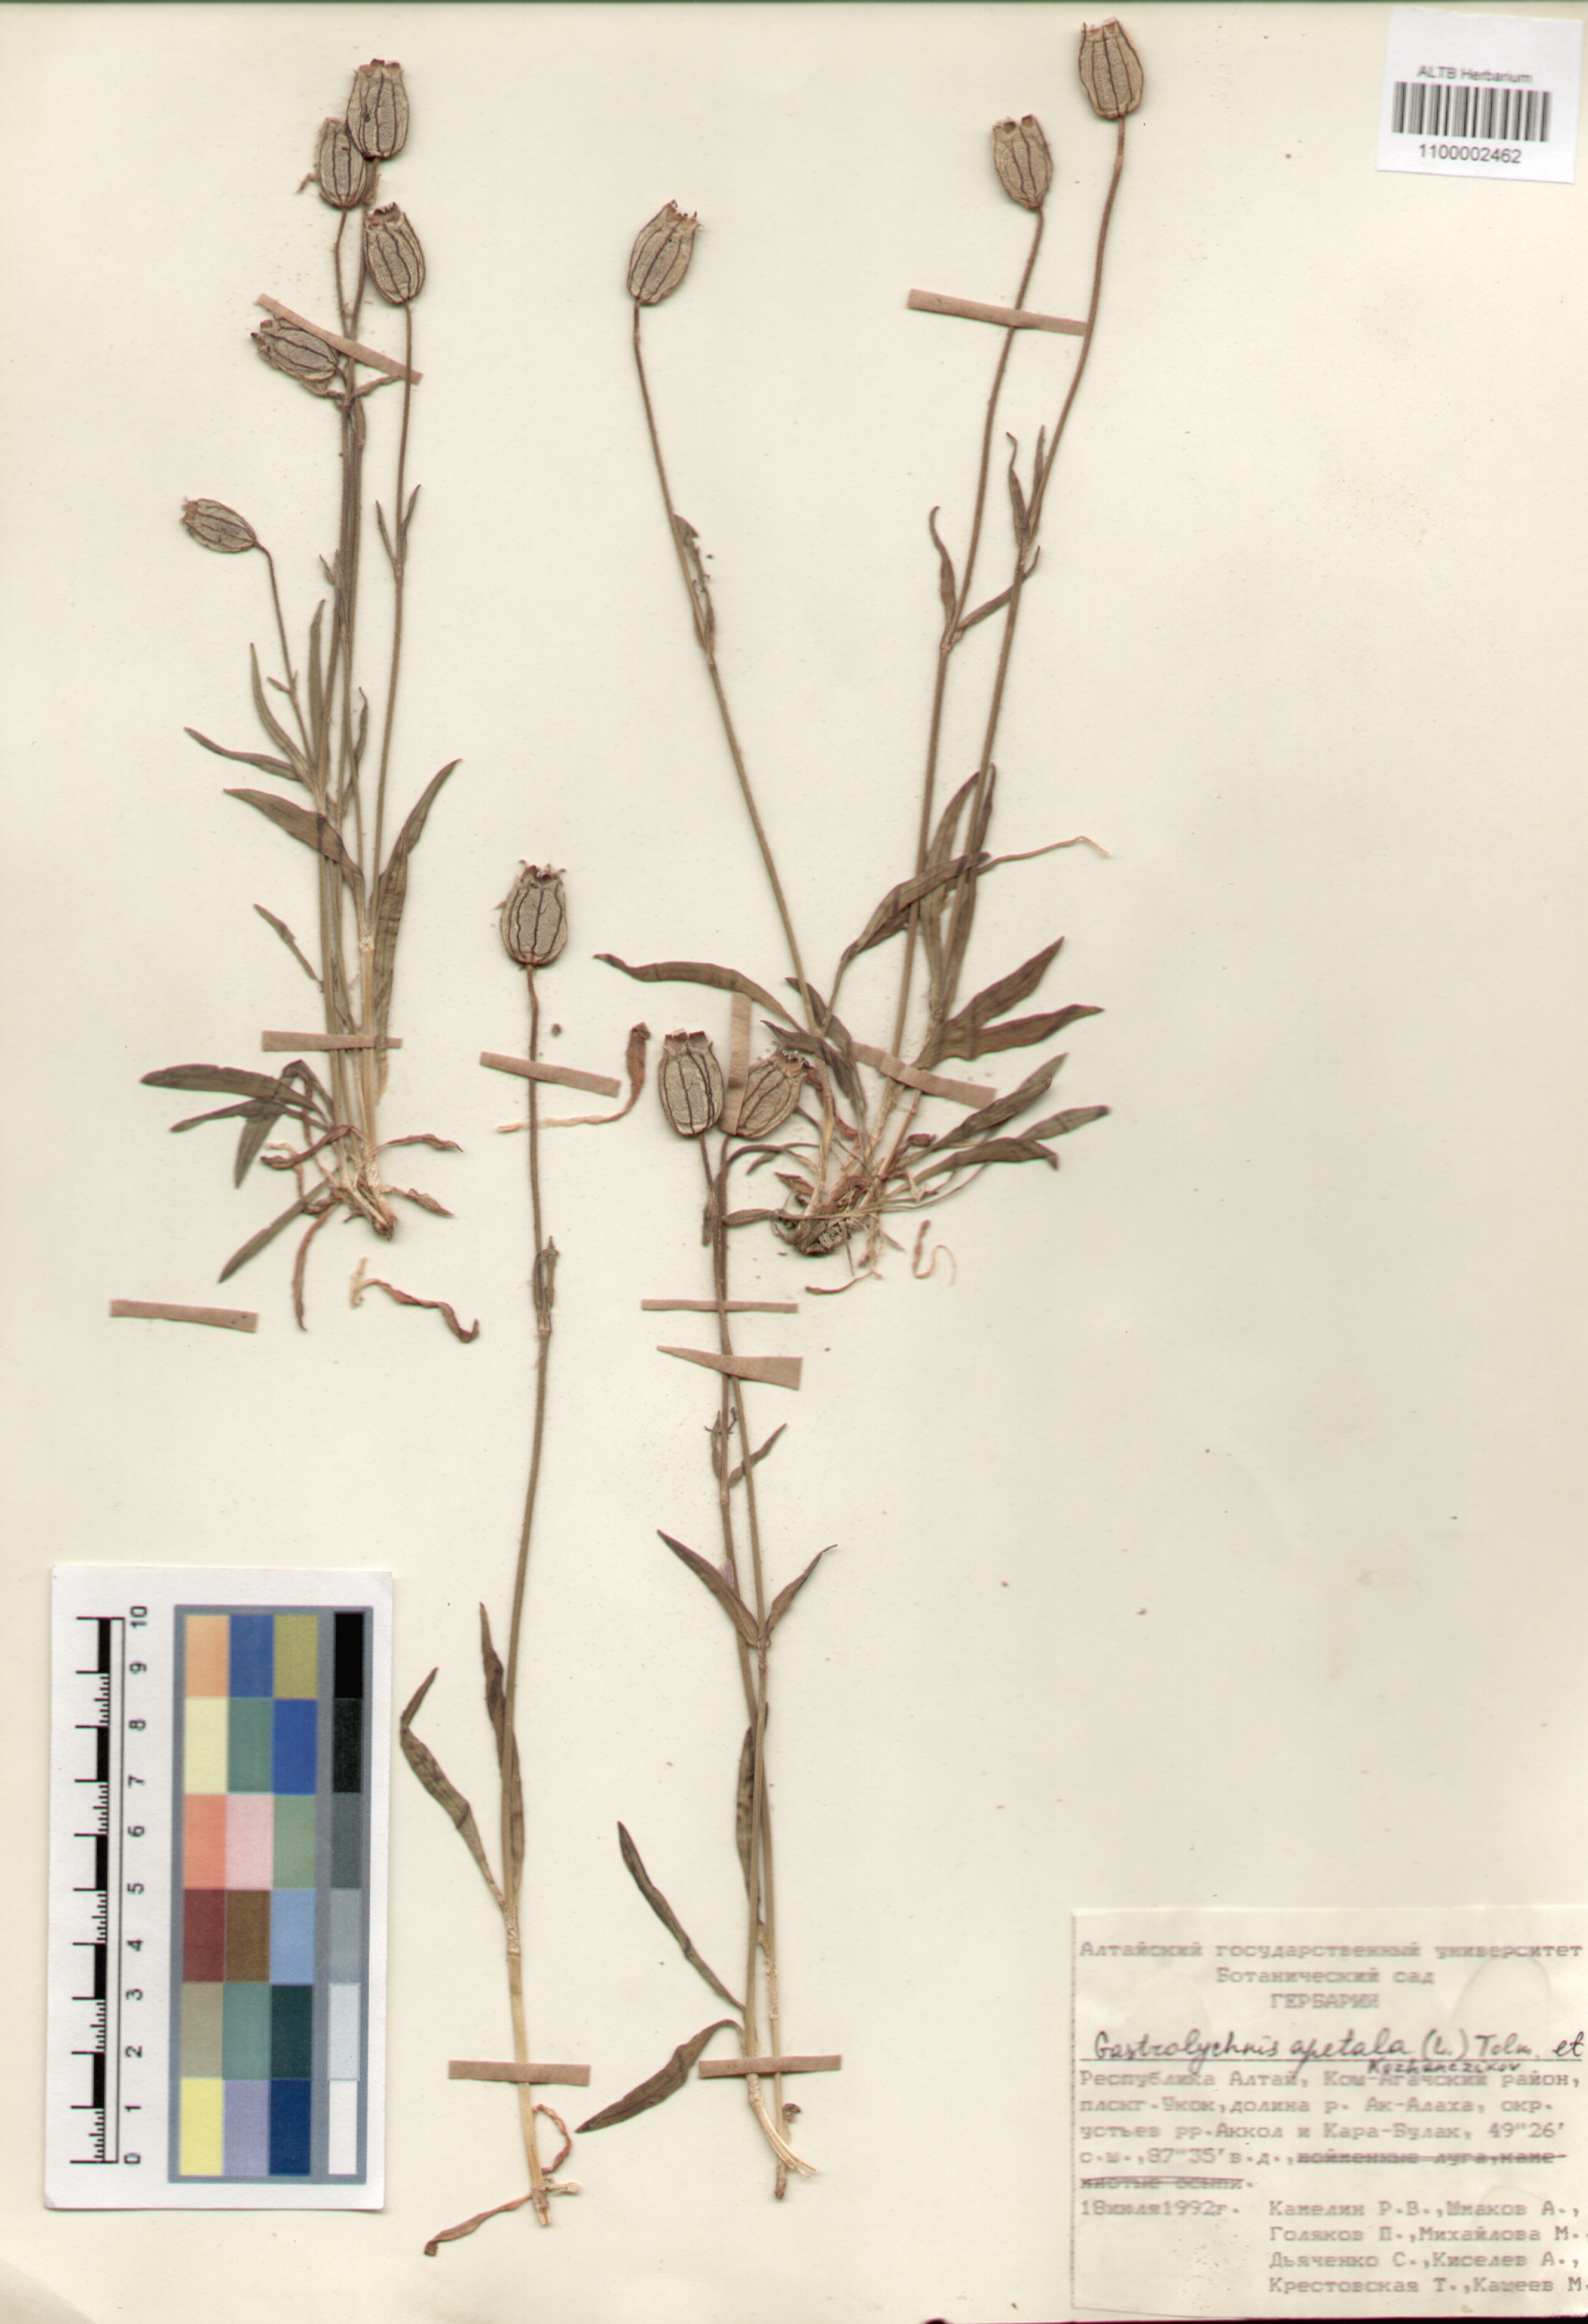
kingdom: Plantae
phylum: Tracheophyta
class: Magnoliopsida
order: Caryophyllales
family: Caryophyllaceae
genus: Silene
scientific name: Silene wahlbergella
